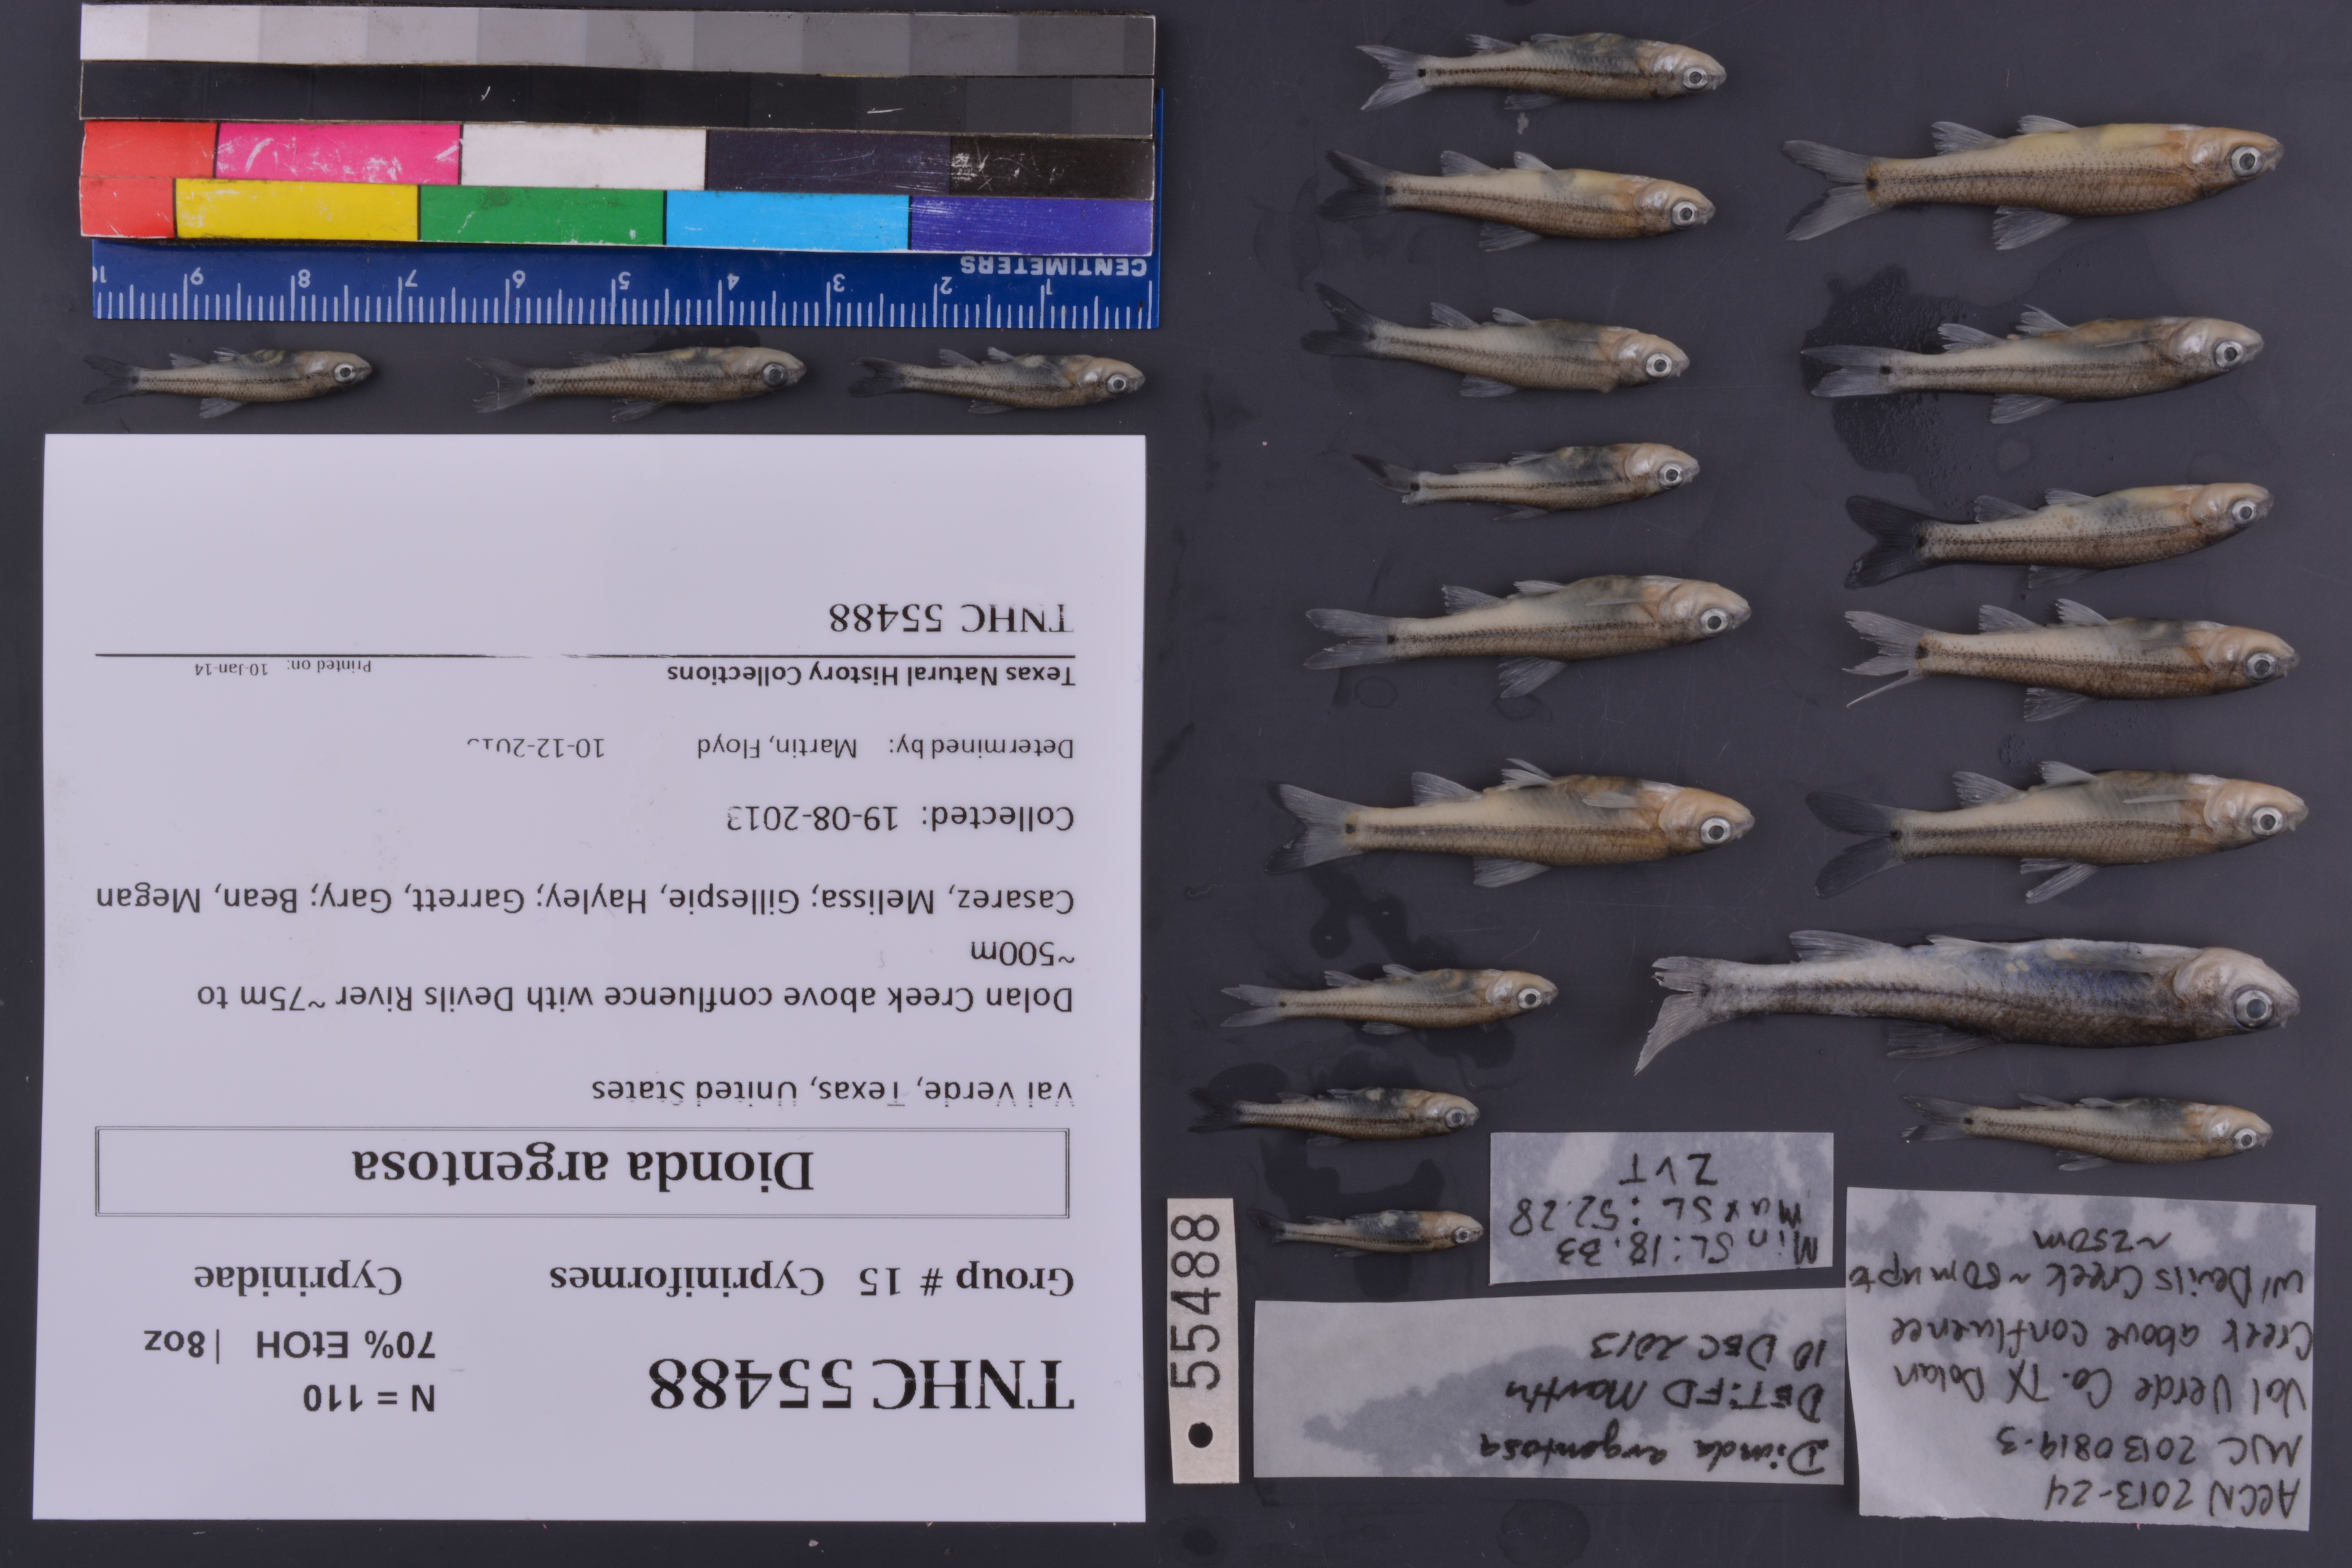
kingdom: Animalia
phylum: Chordata
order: Cypriniformes
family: Cyprinidae
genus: Dionda
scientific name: Dionda argentosa
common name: Manantial roundnose minnow
